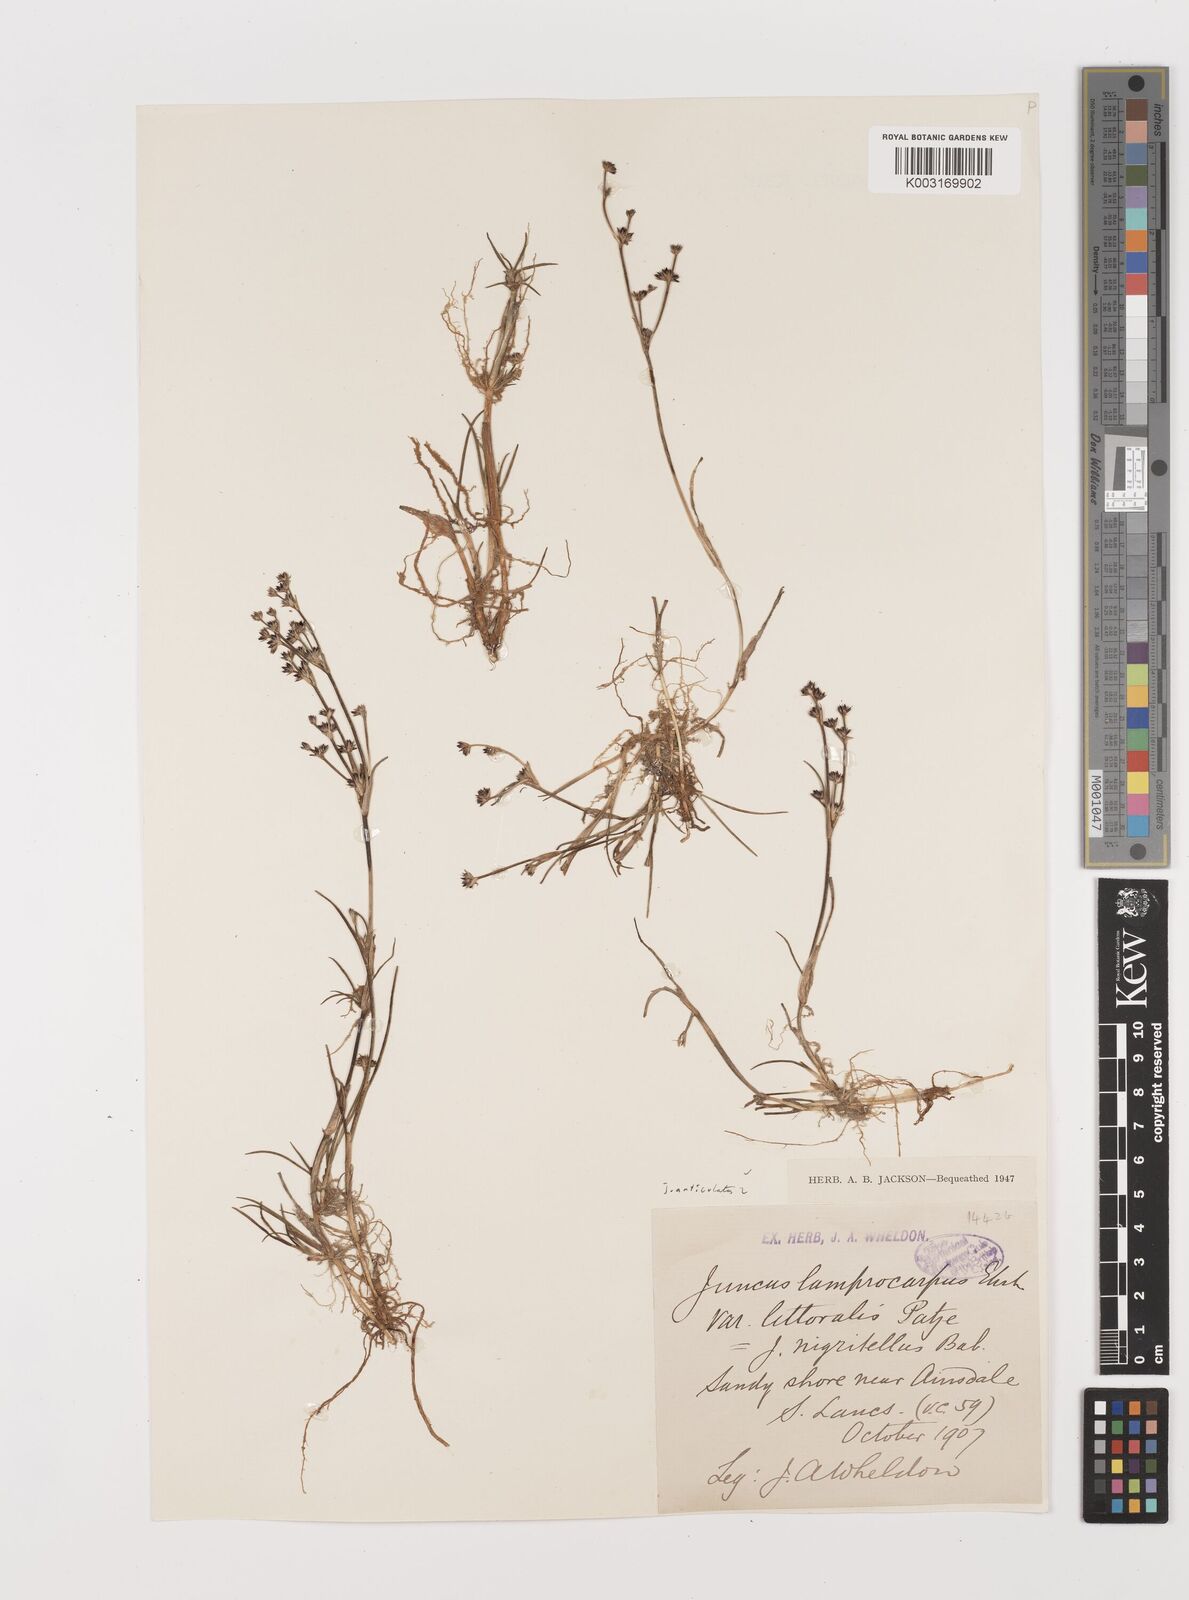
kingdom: Plantae
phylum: Tracheophyta
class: Liliopsida
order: Poales
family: Juncaceae
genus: Juncus
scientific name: Juncus articulatus
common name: Jointed rush
